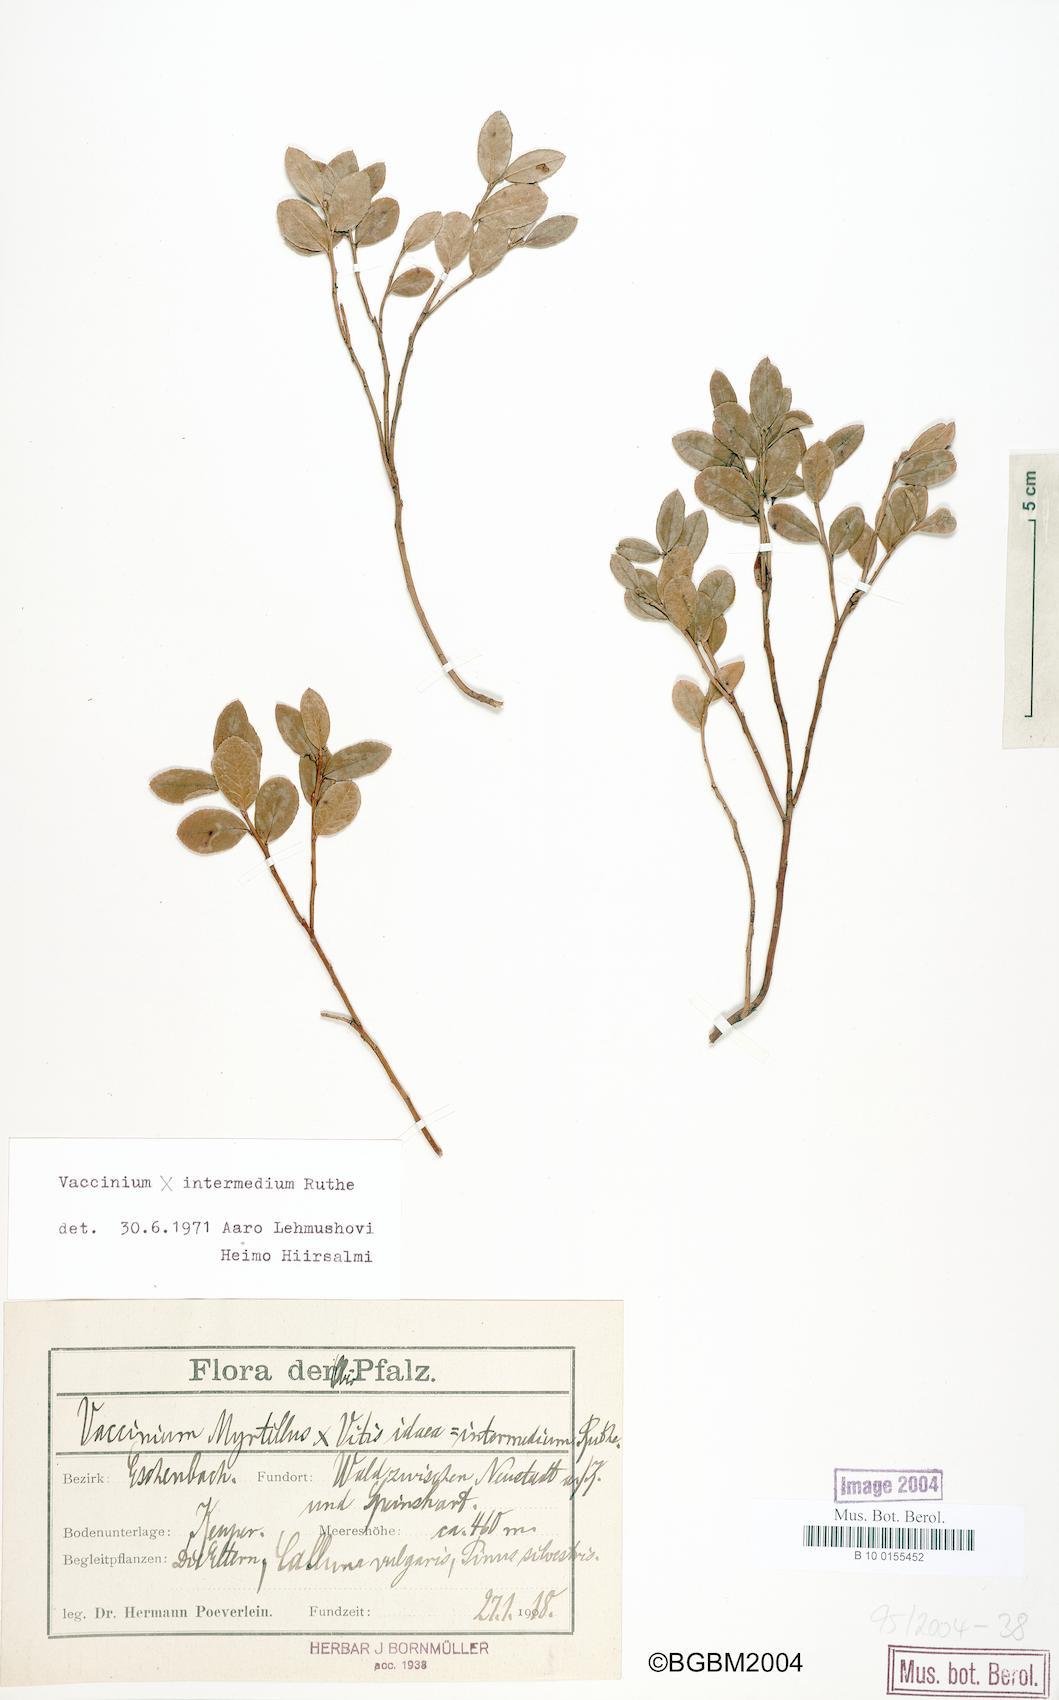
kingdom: Plantae
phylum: Tracheophyta
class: Magnoliopsida
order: Ericales
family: Ericaceae
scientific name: Ericaceae
